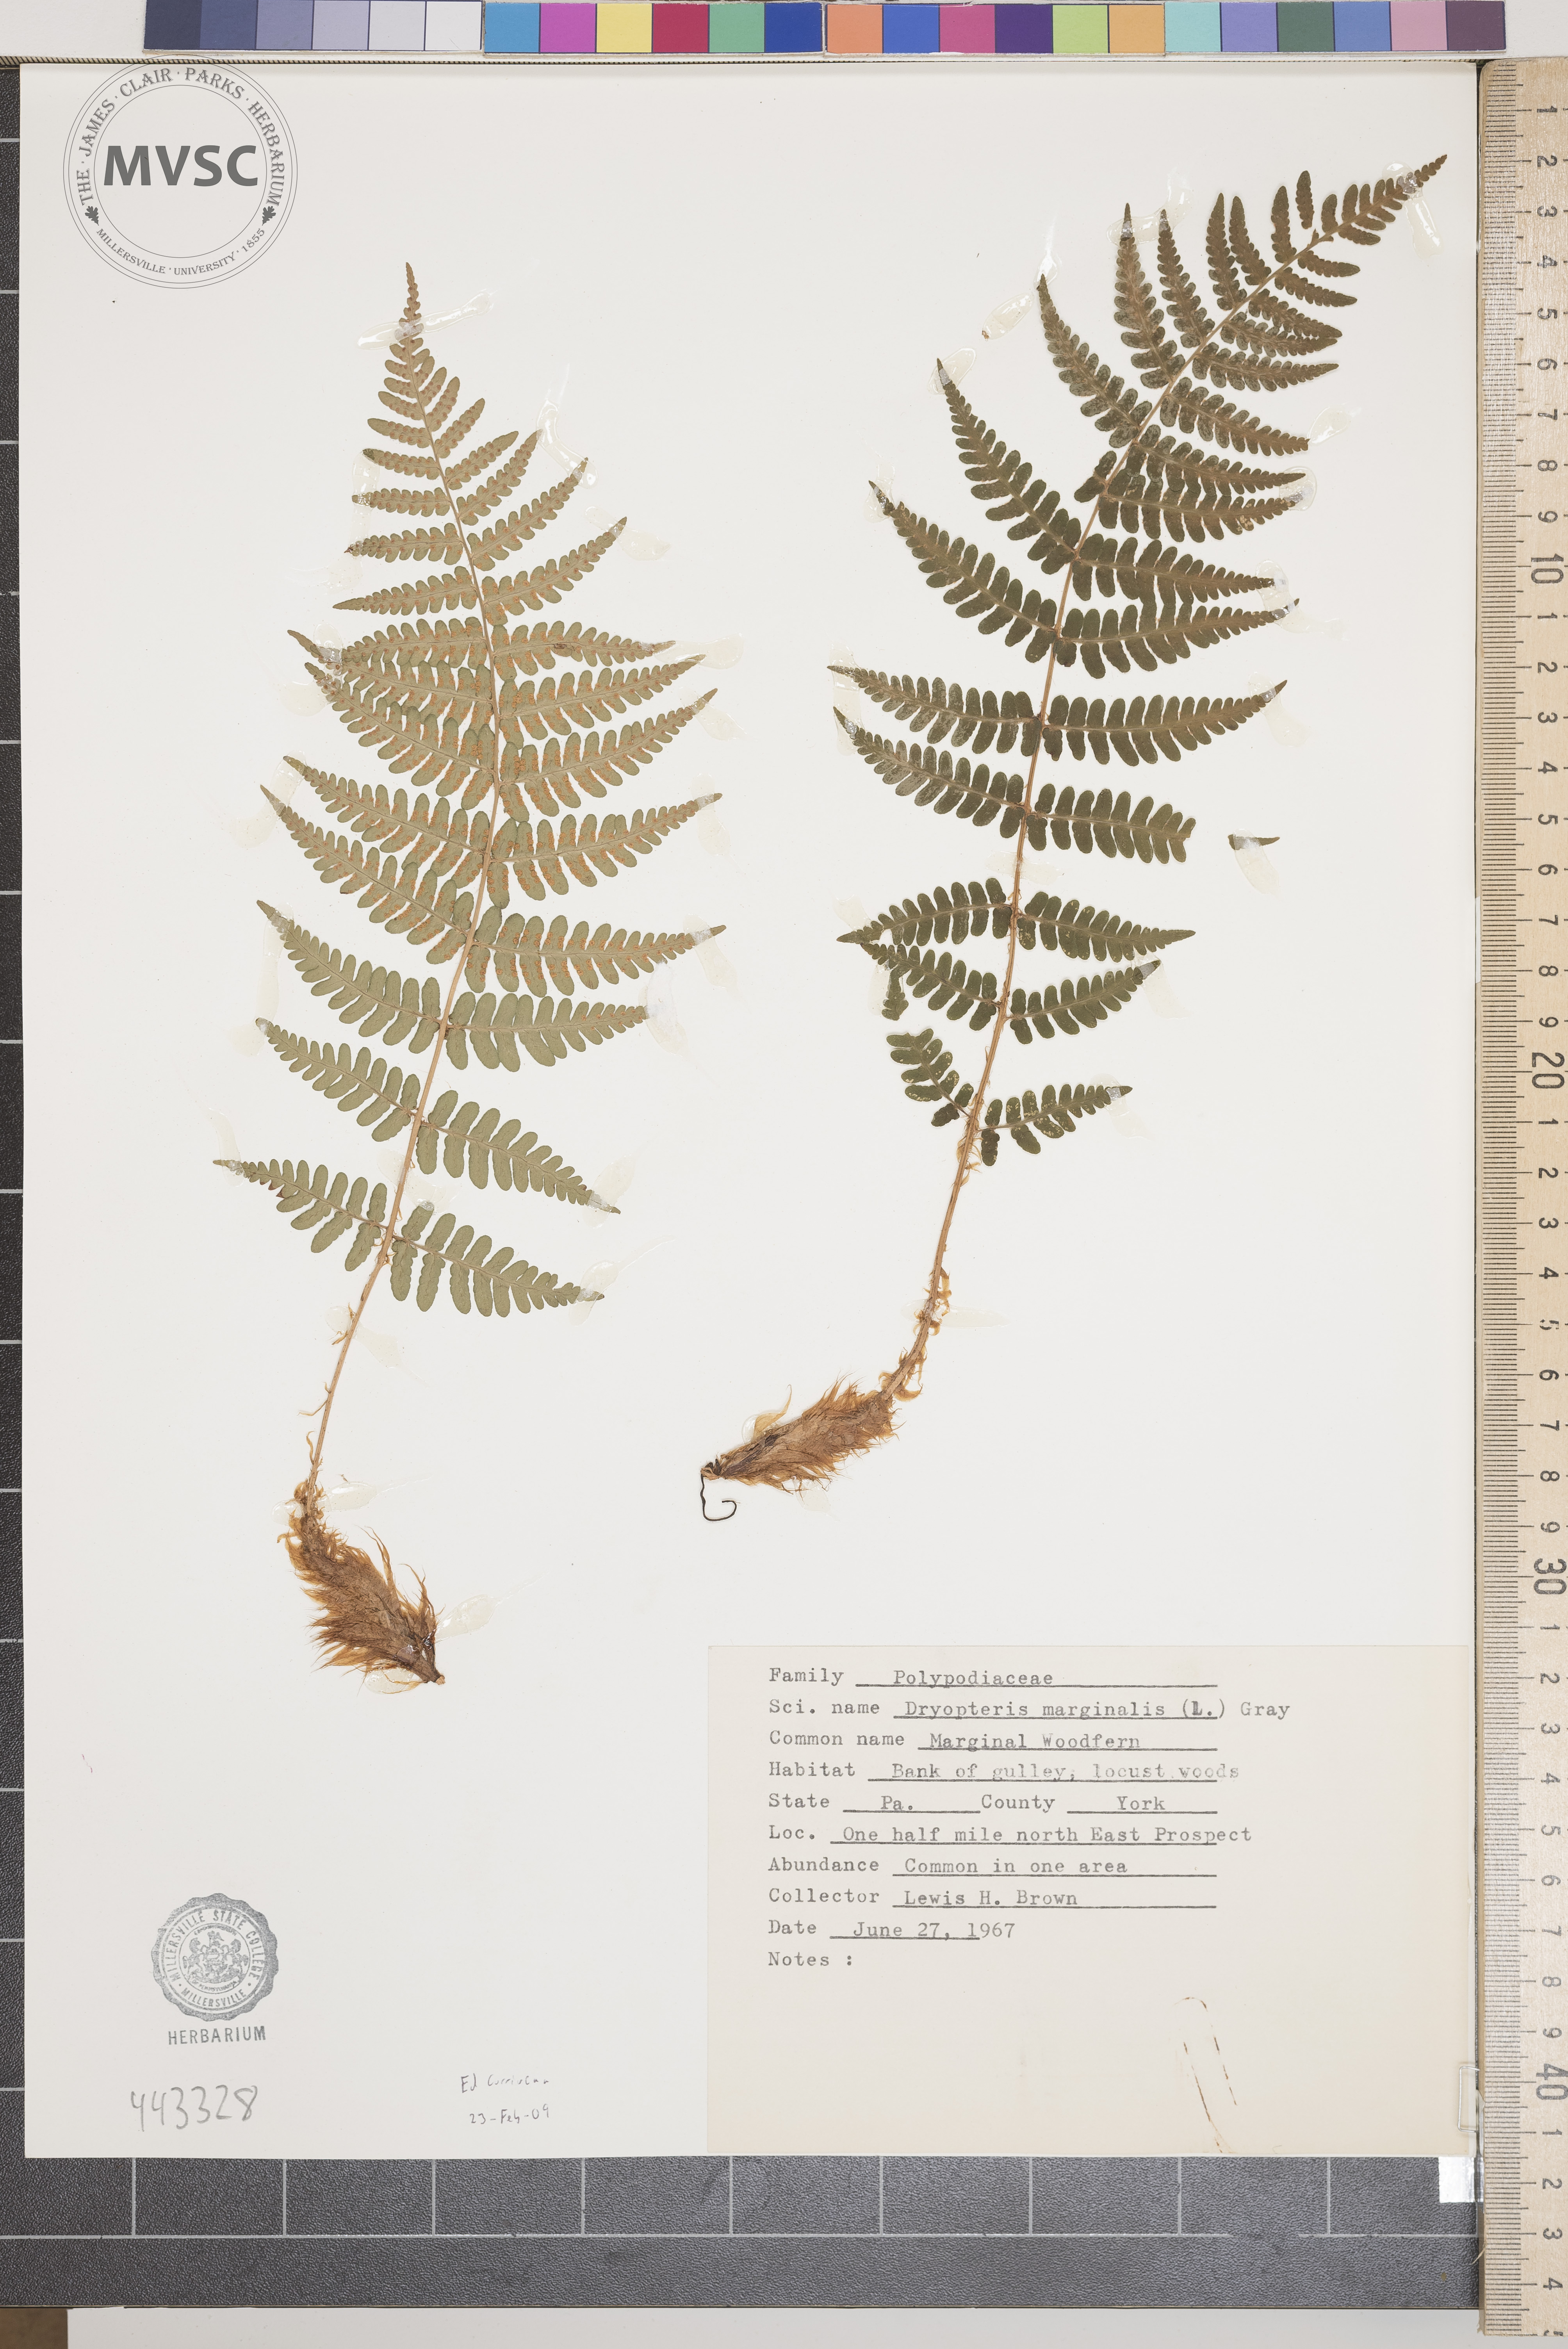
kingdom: Plantae
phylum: Tracheophyta
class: Polypodiopsida
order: Polypodiales
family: Dryopteridaceae
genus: Dryopteris
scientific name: Dryopteris marginalis
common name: Marginal woodfern
